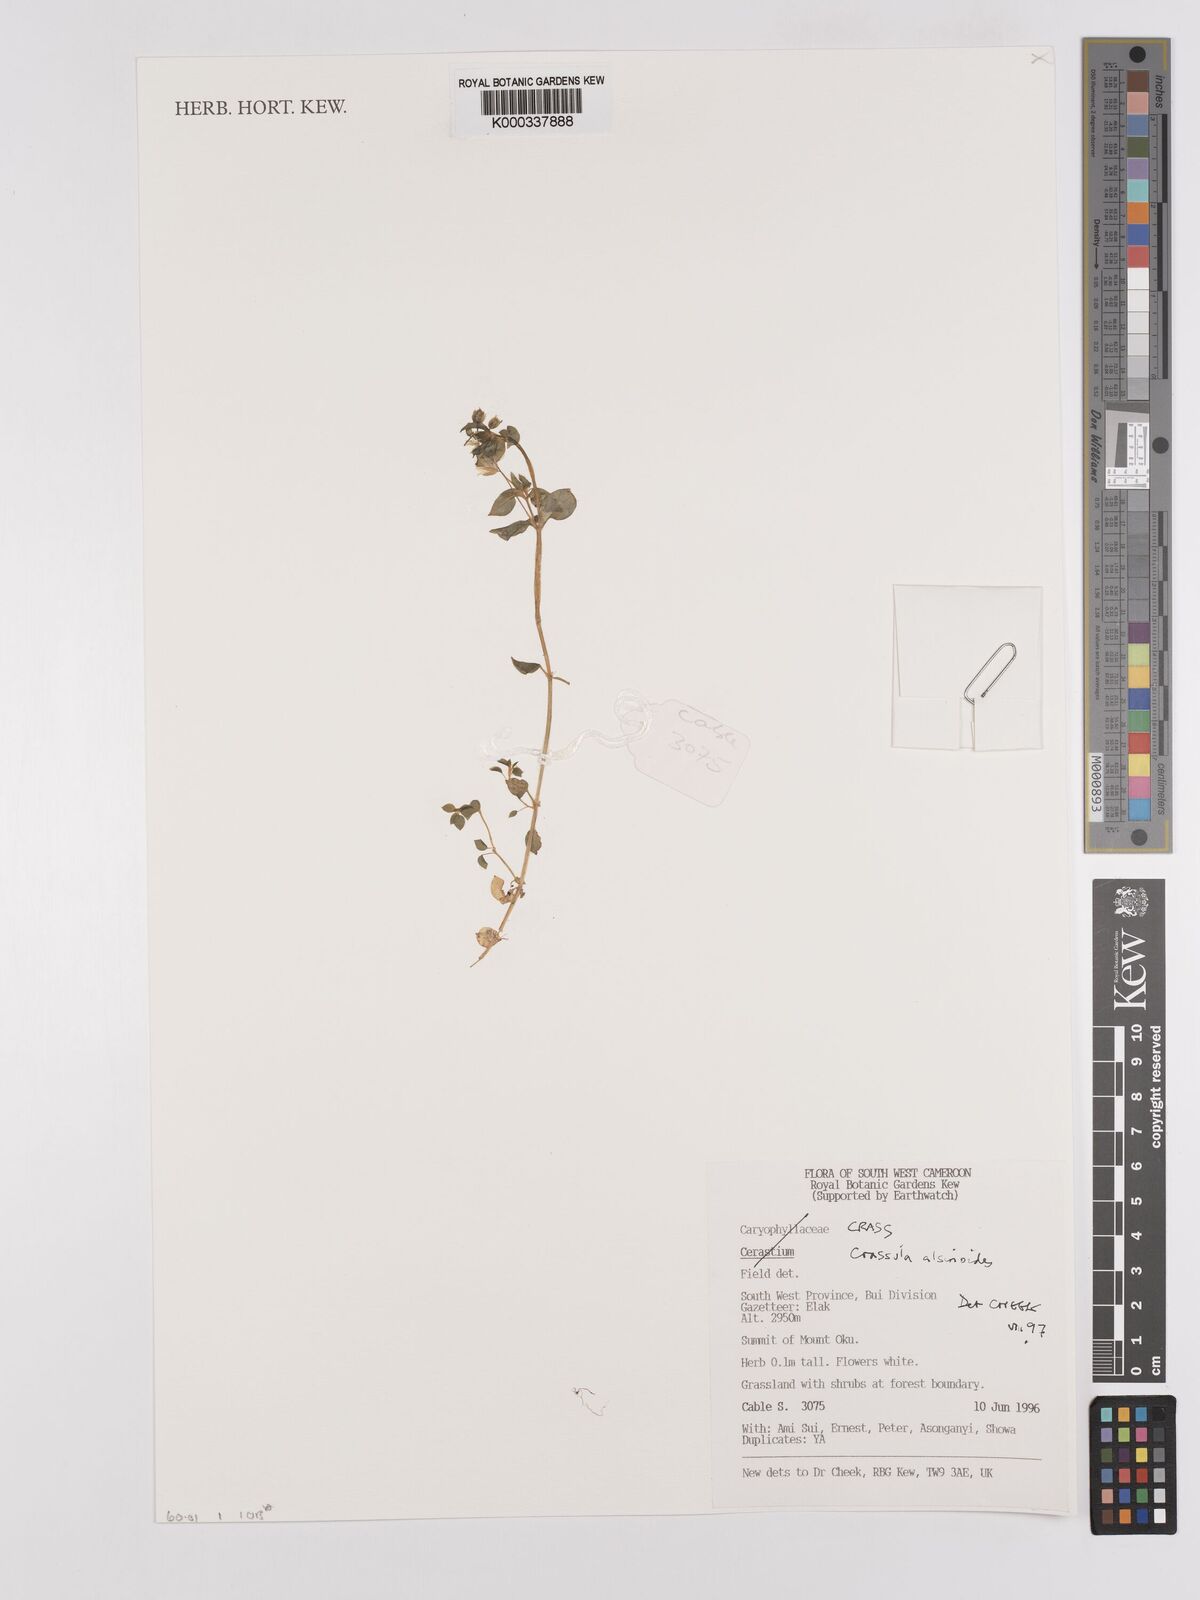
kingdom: Plantae
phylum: Tracheophyta
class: Magnoliopsida
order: Saxifragales
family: Crassulaceae
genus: Crassula
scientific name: Crassula alsinoides
